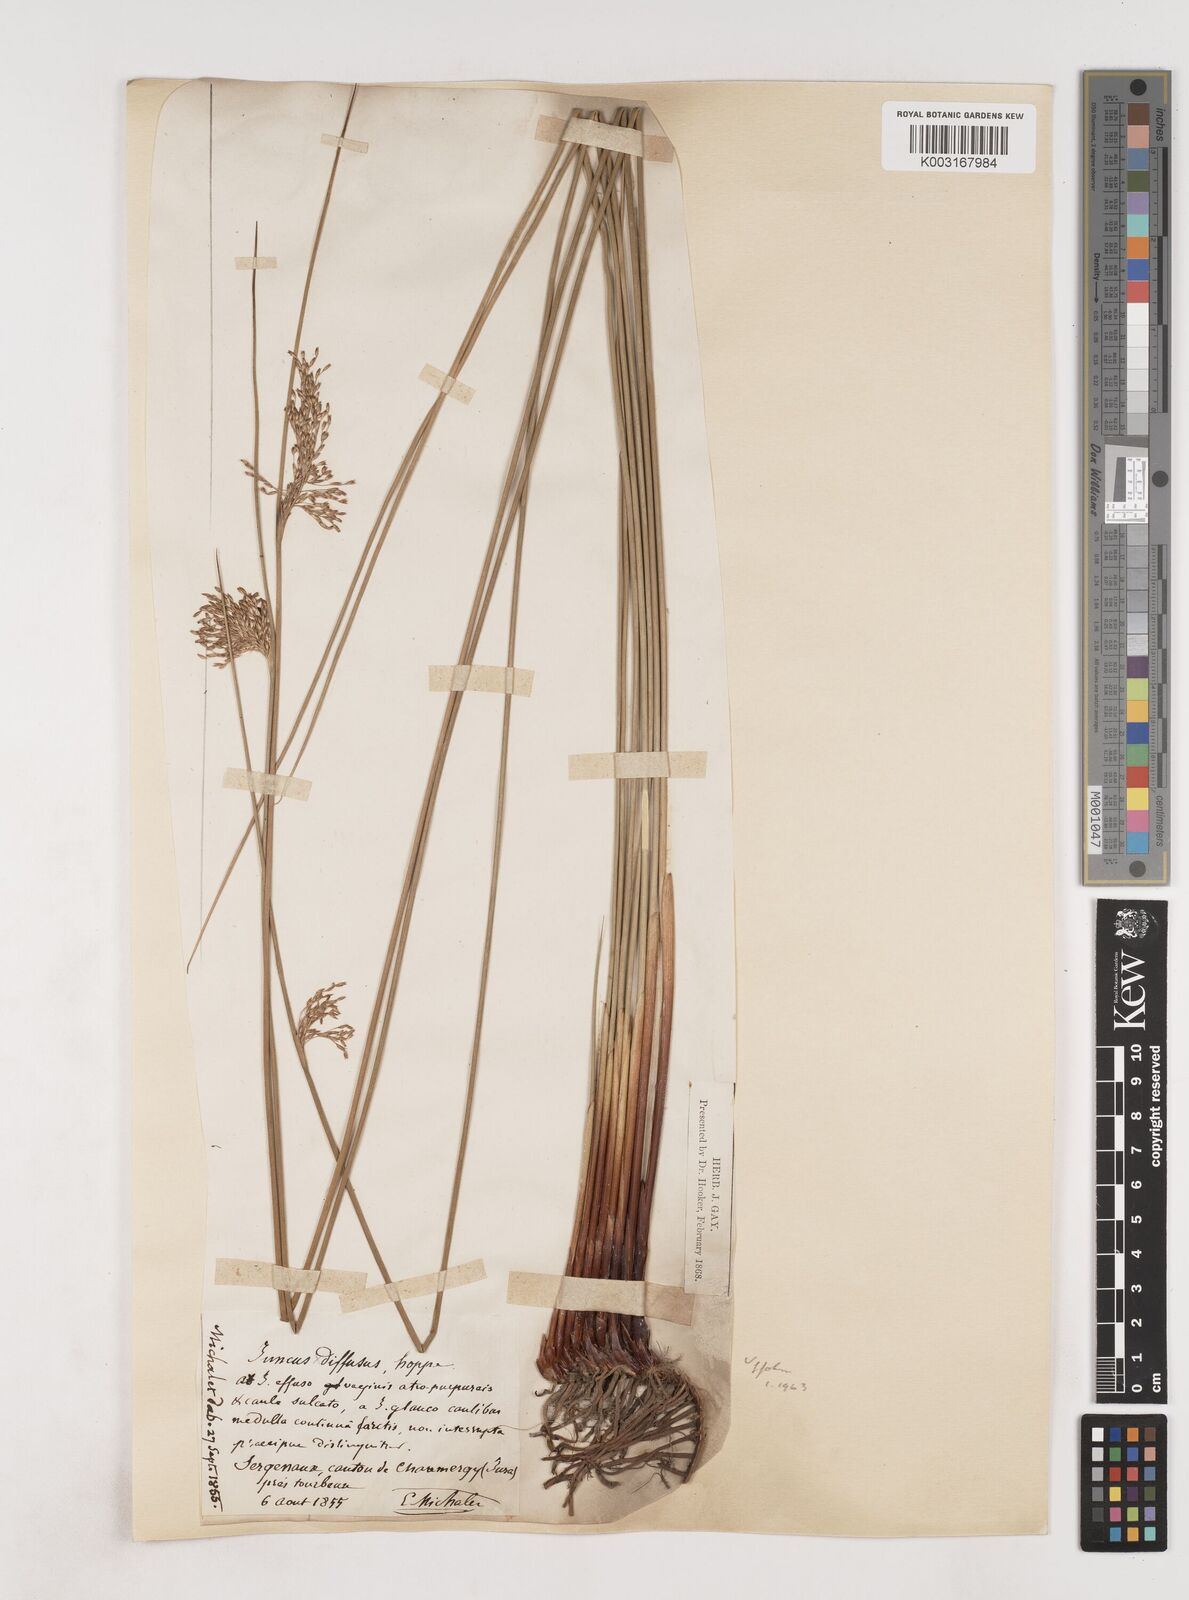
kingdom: Plantae
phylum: Tracheophyta
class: Liliopsida
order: Poales
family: Juncaceae
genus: Juncus
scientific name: Juncus effusus
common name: Soft rush
